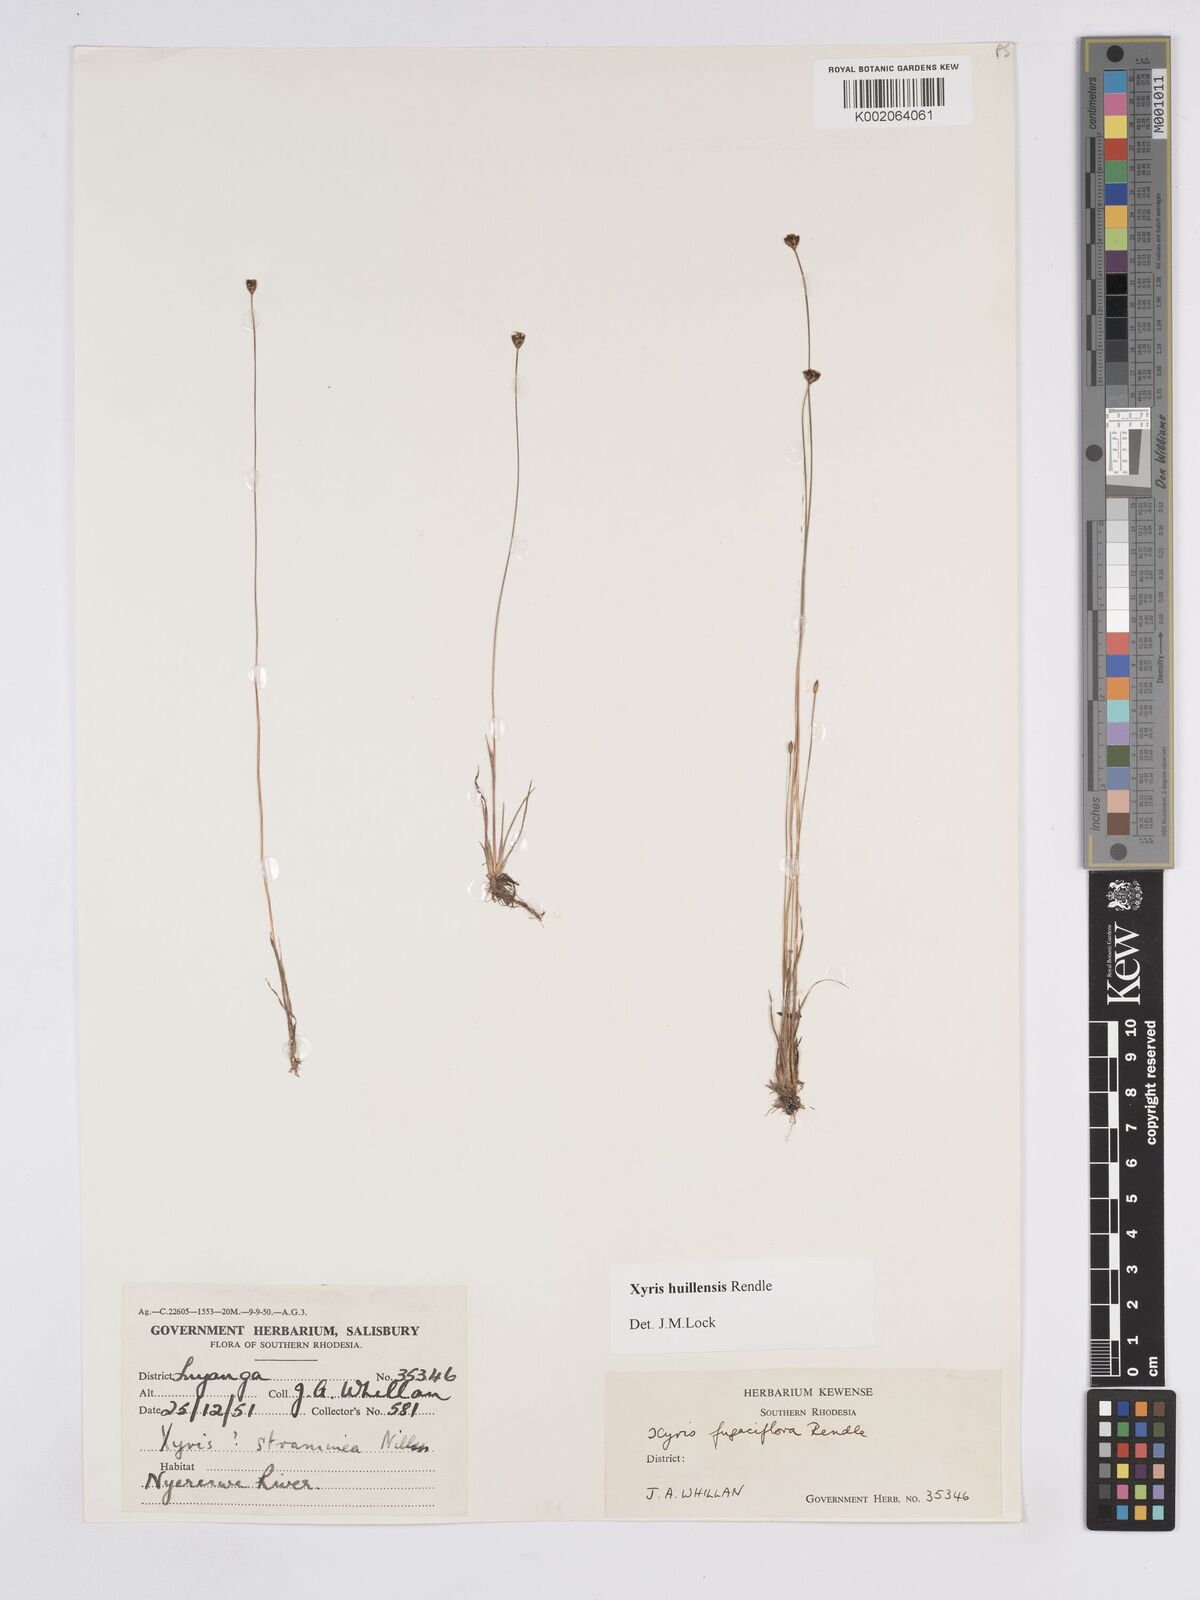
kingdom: Plantae
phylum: Tracheophyta
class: Liliopsida
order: Poales
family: Xyridaceae
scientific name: Xyridaceae
